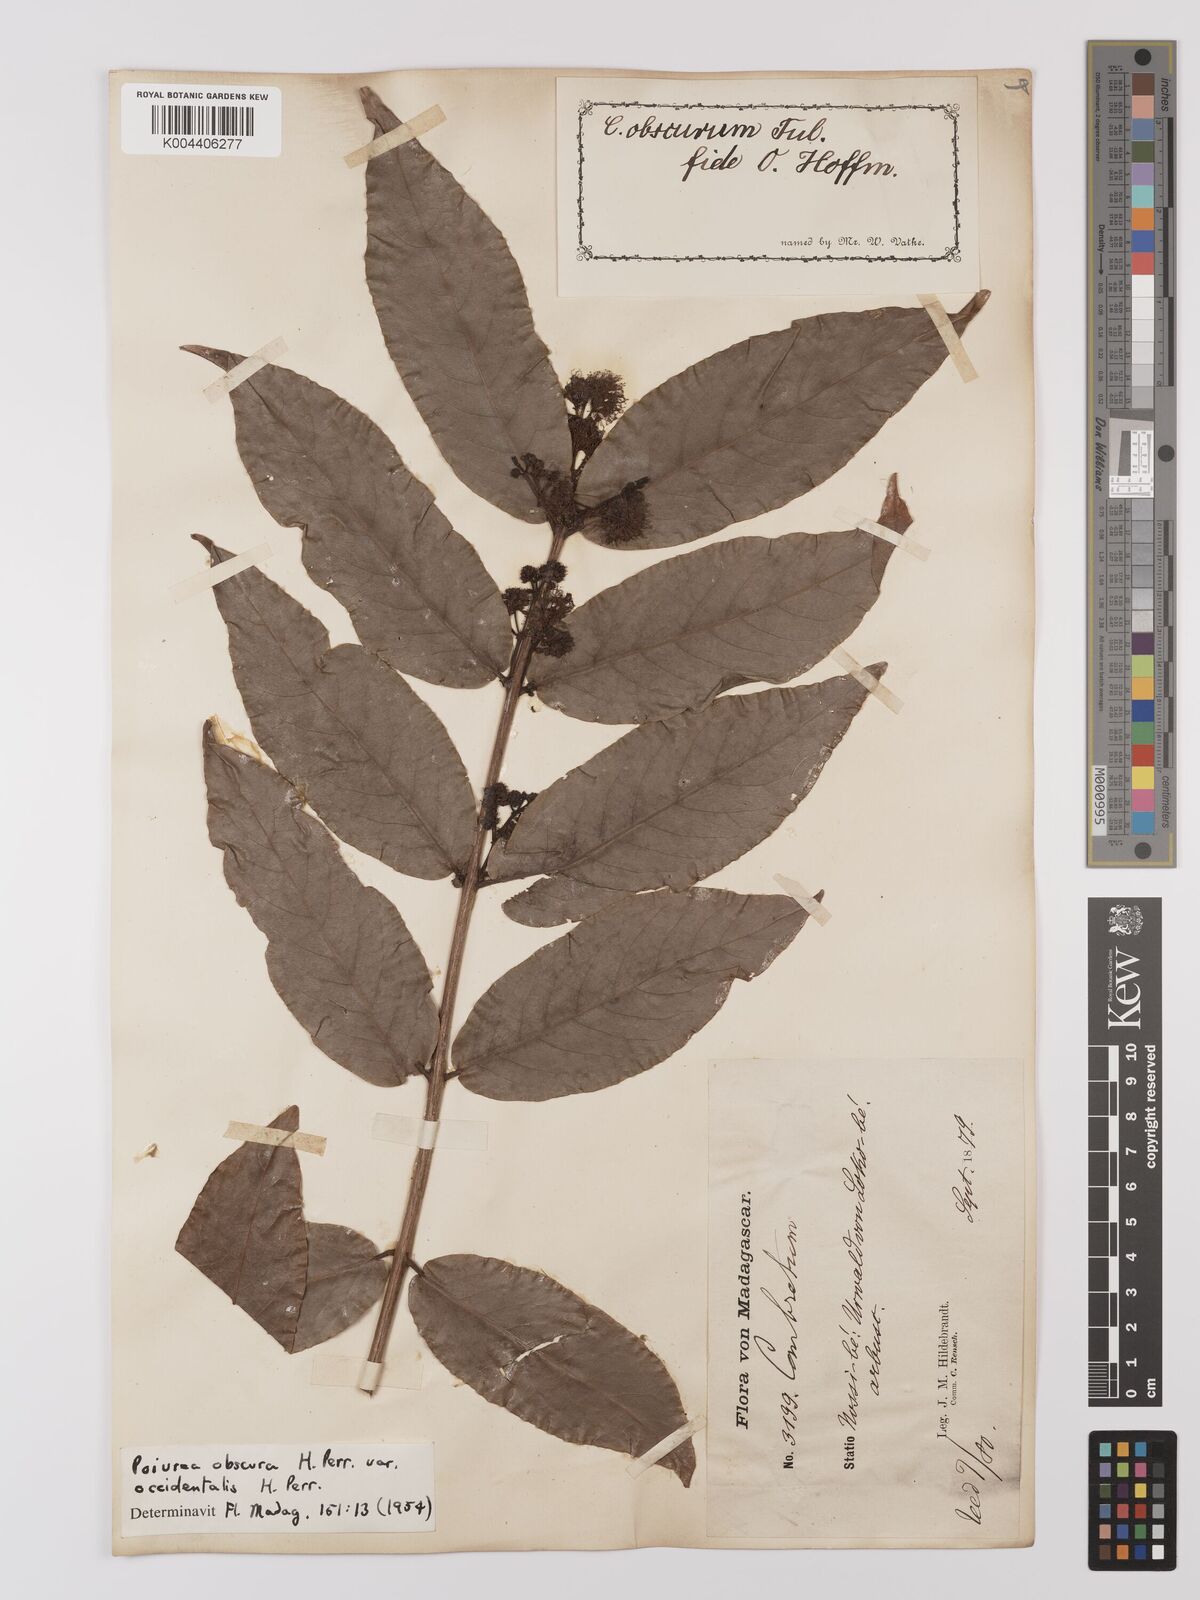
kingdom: Plantae
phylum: Tracheophyta
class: Magnoliopsida
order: Myrtales
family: Combretaceae
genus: Combretum
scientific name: Combretum obscurum
